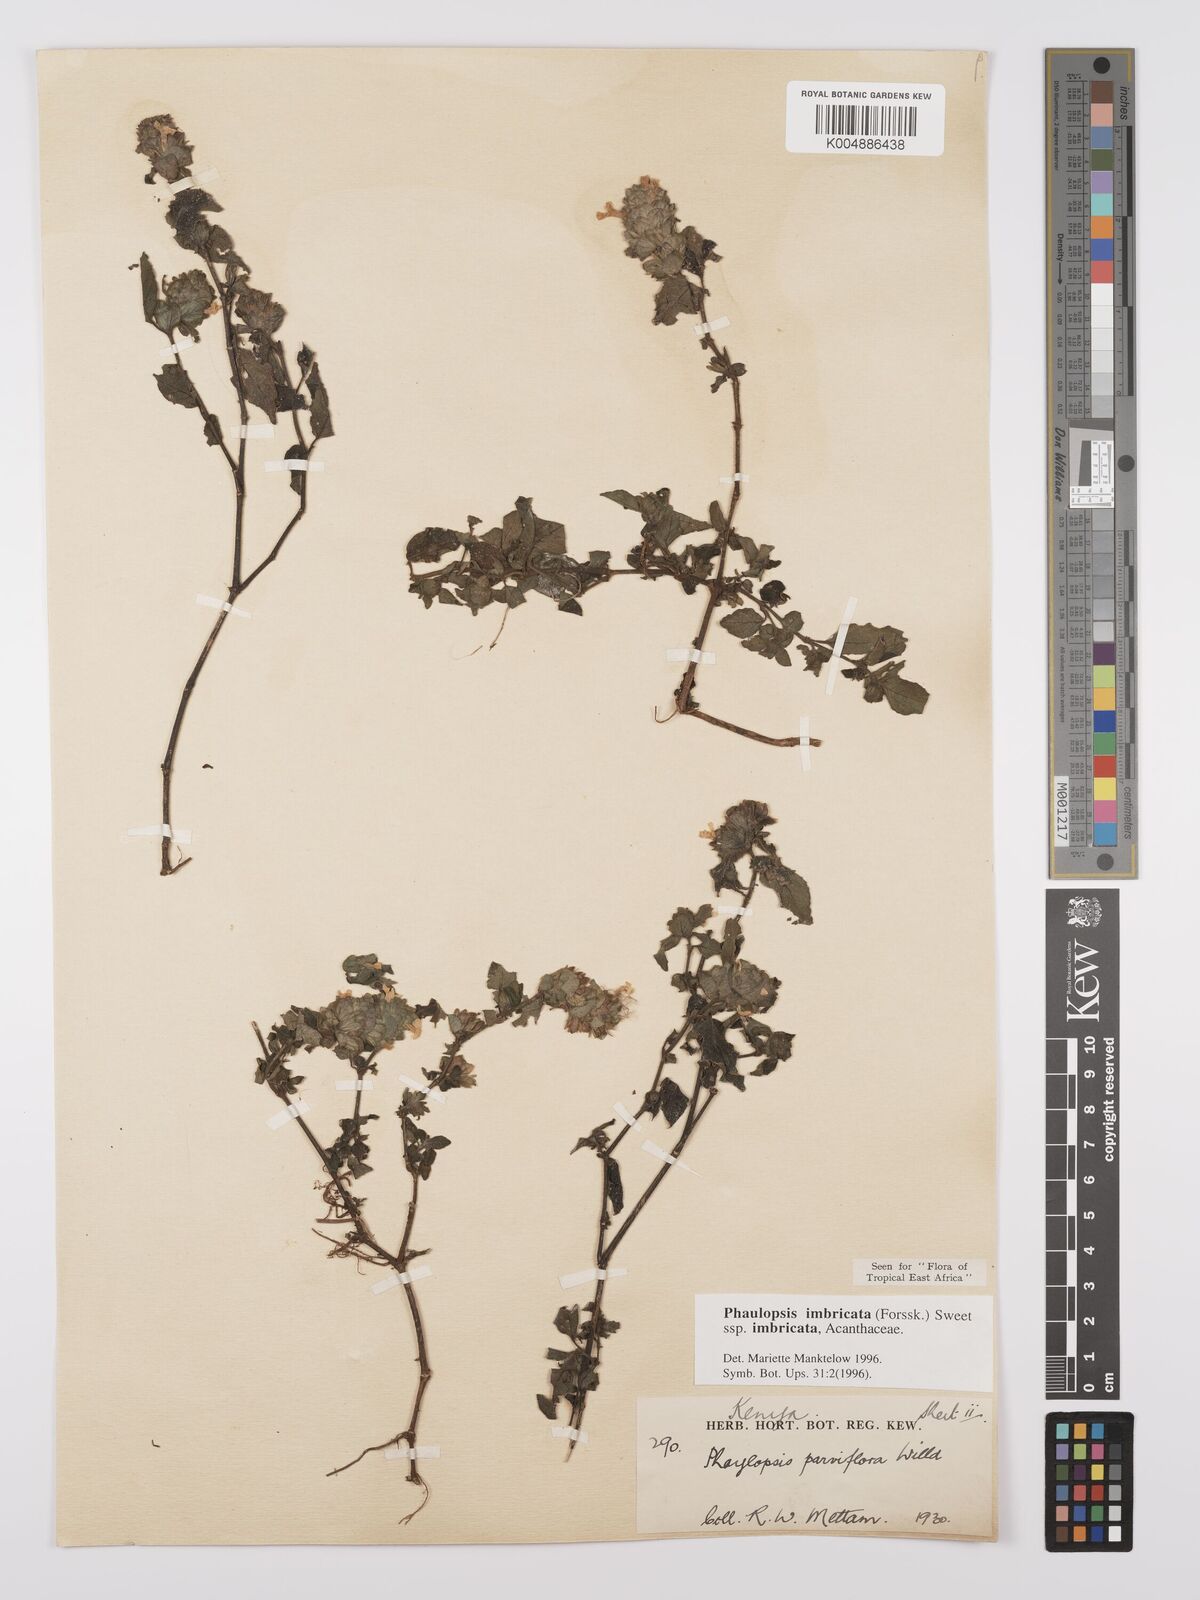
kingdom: Plantae
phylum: Tracheophyta
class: Magnoliopsida
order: Lamiales
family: Acanthaceae
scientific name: Acanthaceae
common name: Acanthaceae
